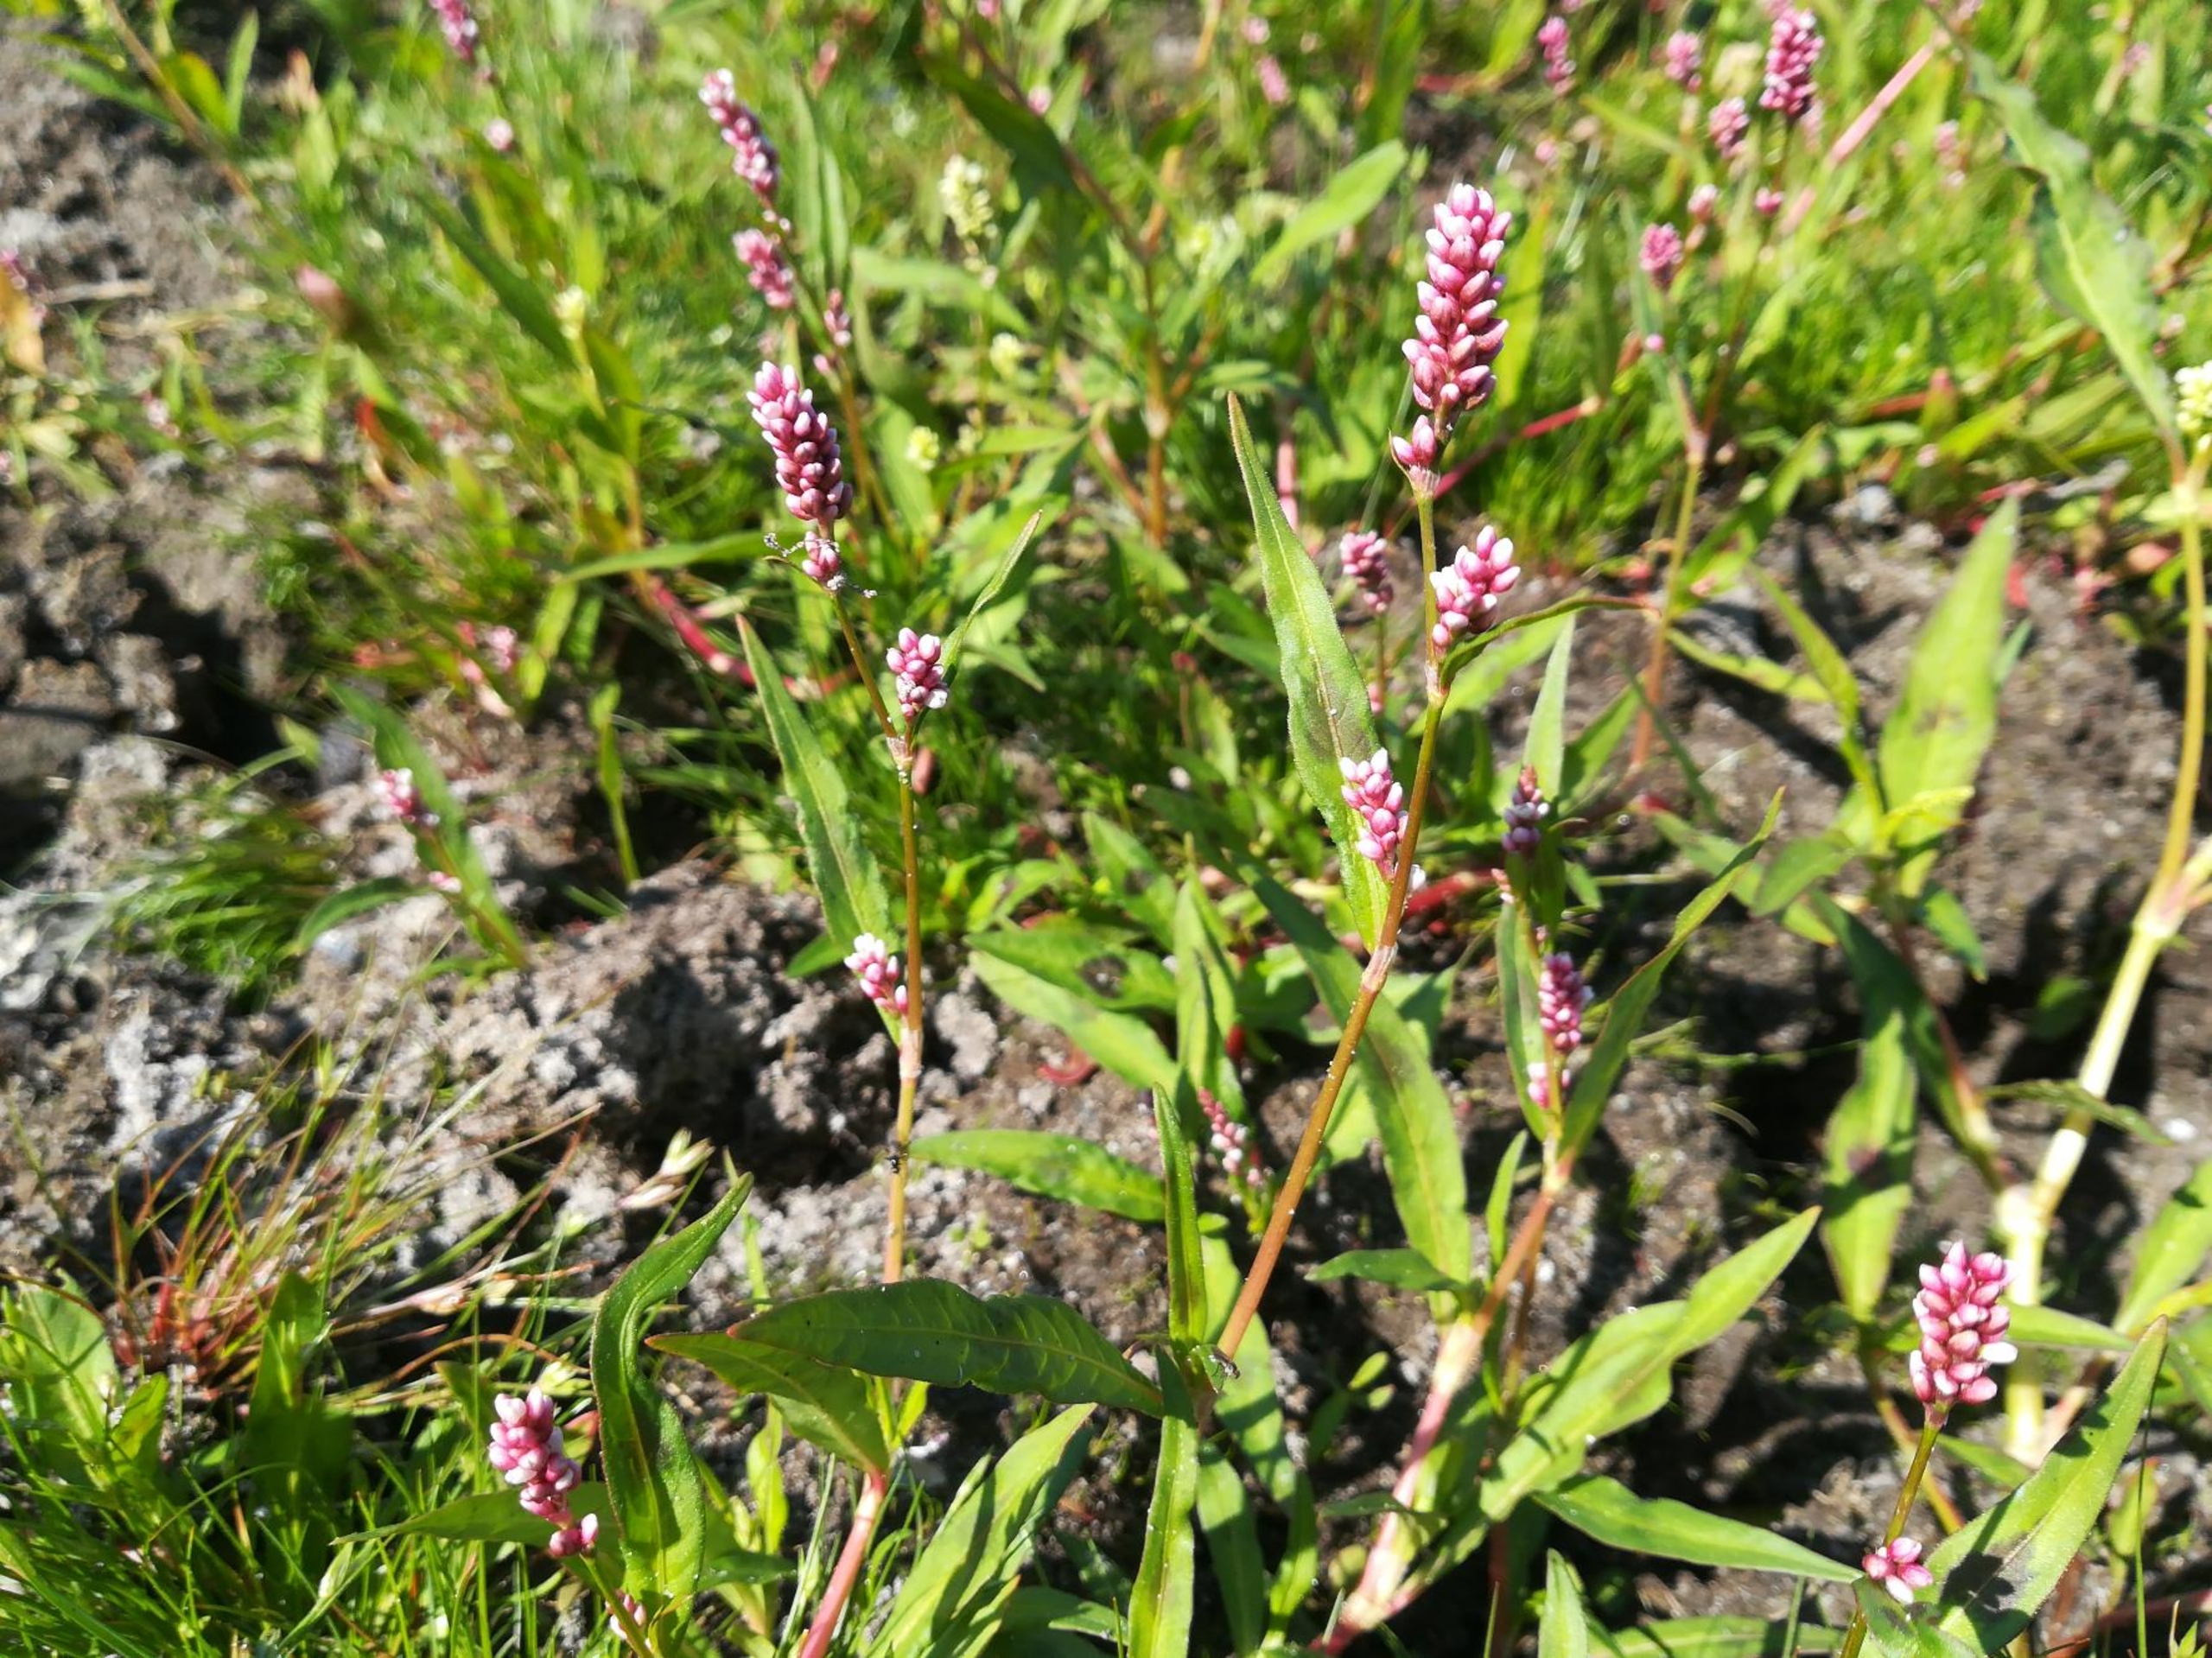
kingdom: Plantae
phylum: Tracheophyta
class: Magnoliopsida
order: Caryophyllales
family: Polygonaceae
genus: Persicaria
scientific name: Persicaria maculosa
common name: Fersken-pileurt
